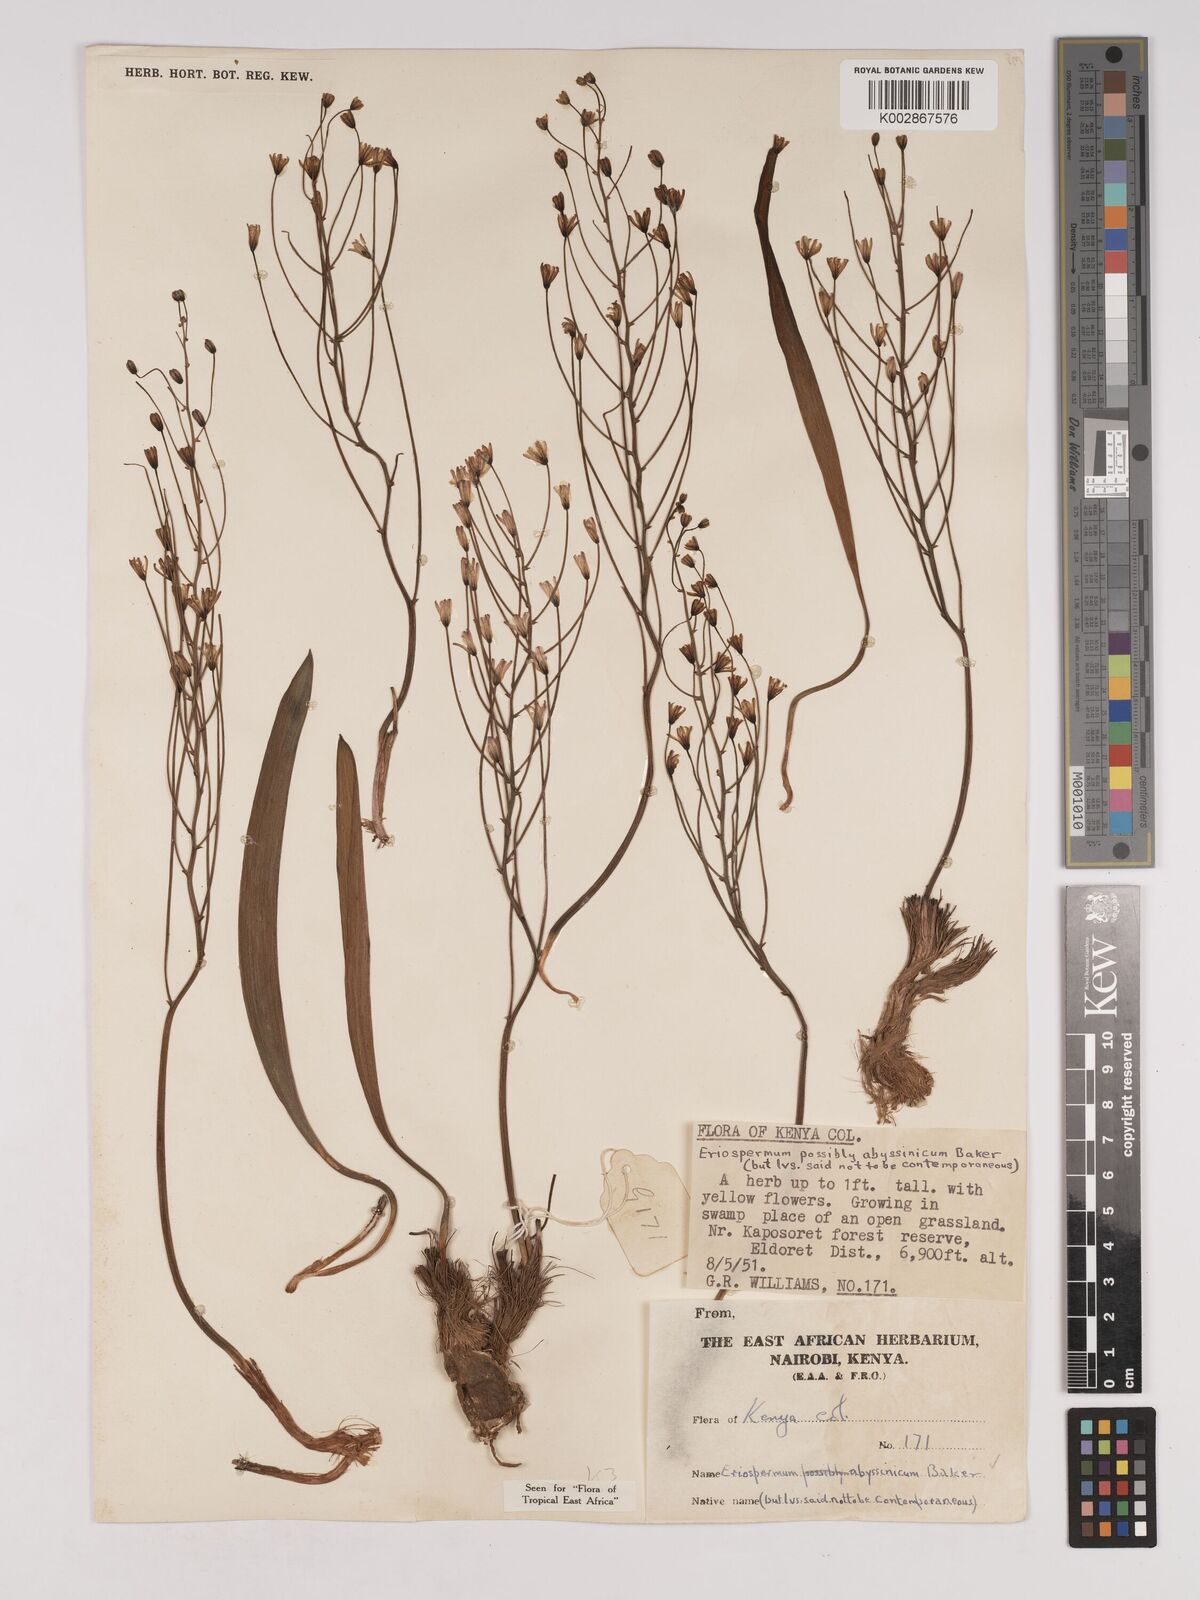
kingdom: Plantae
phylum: Tracheophyta
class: Liliopsida
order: Asparagales
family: Asparagaceae
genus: Eriospermum
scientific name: Eriospermum abyssinicum
